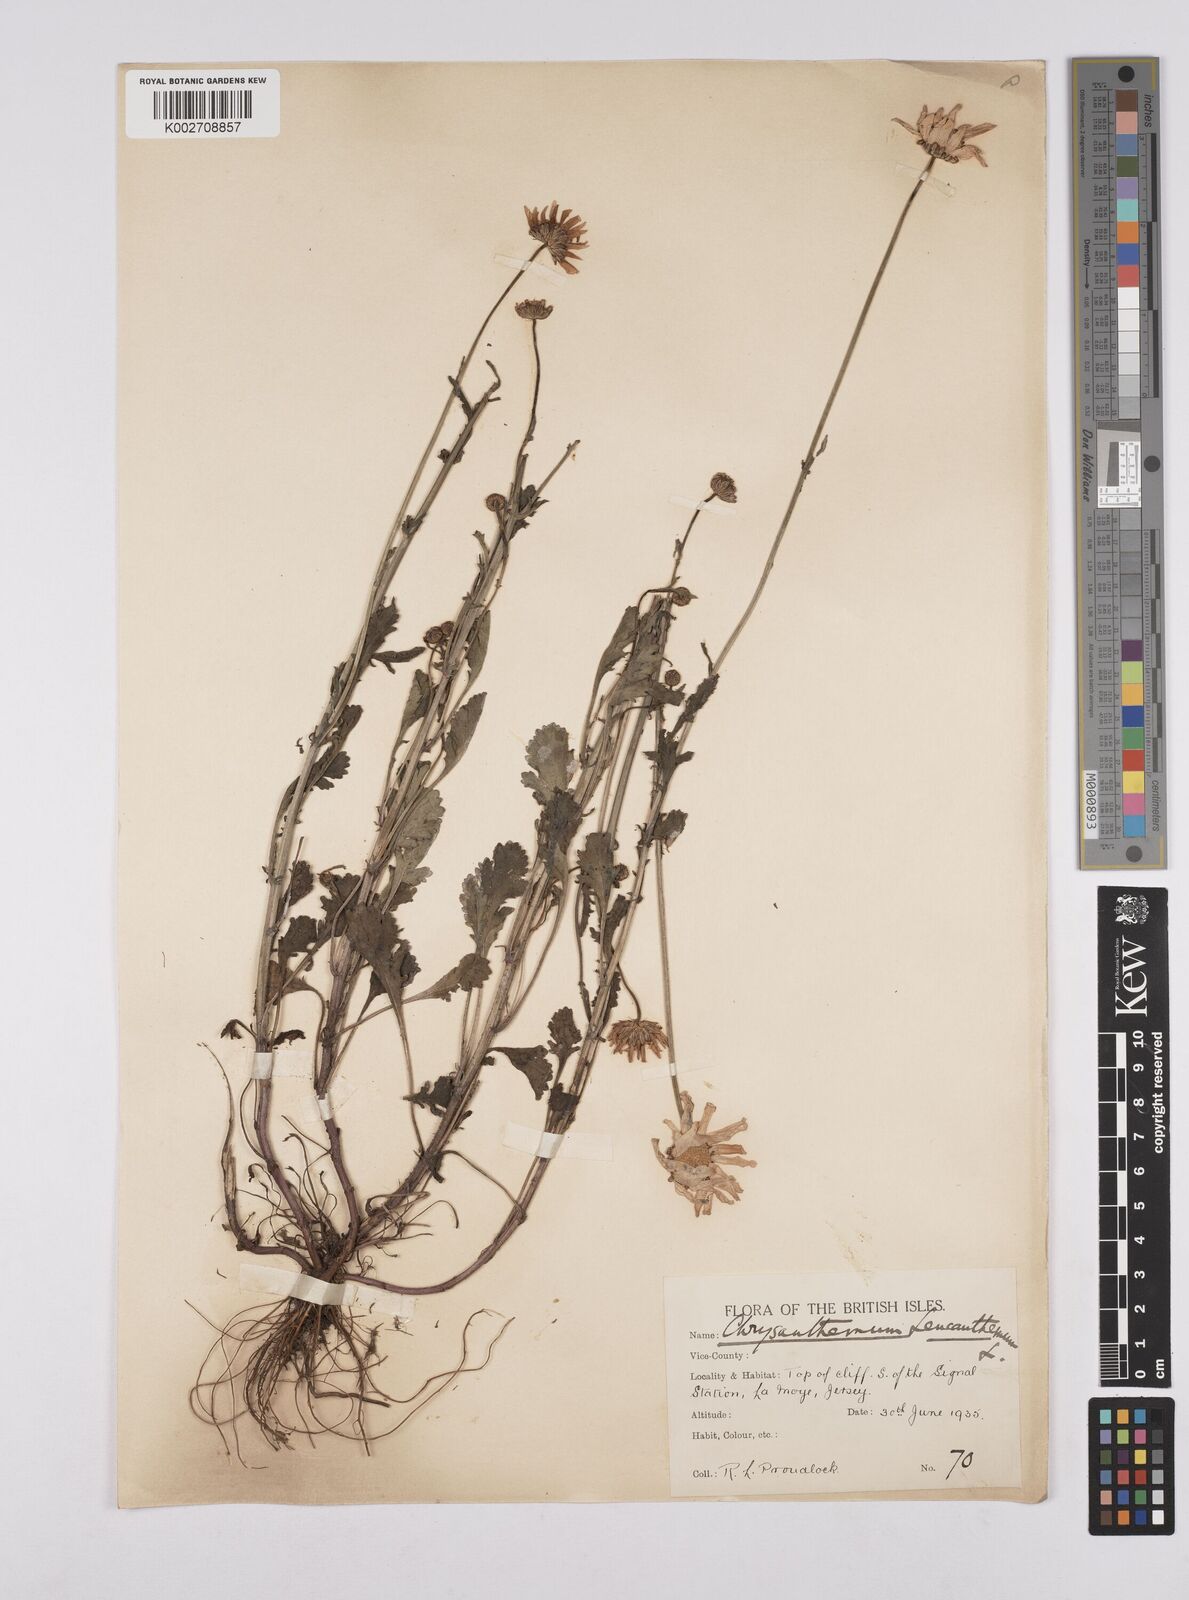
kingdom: Plantae
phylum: Tracheophyta
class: Magnoliopsida
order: Asterales
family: Asteraceae
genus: Leucanthemum
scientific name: Leucanthemum
